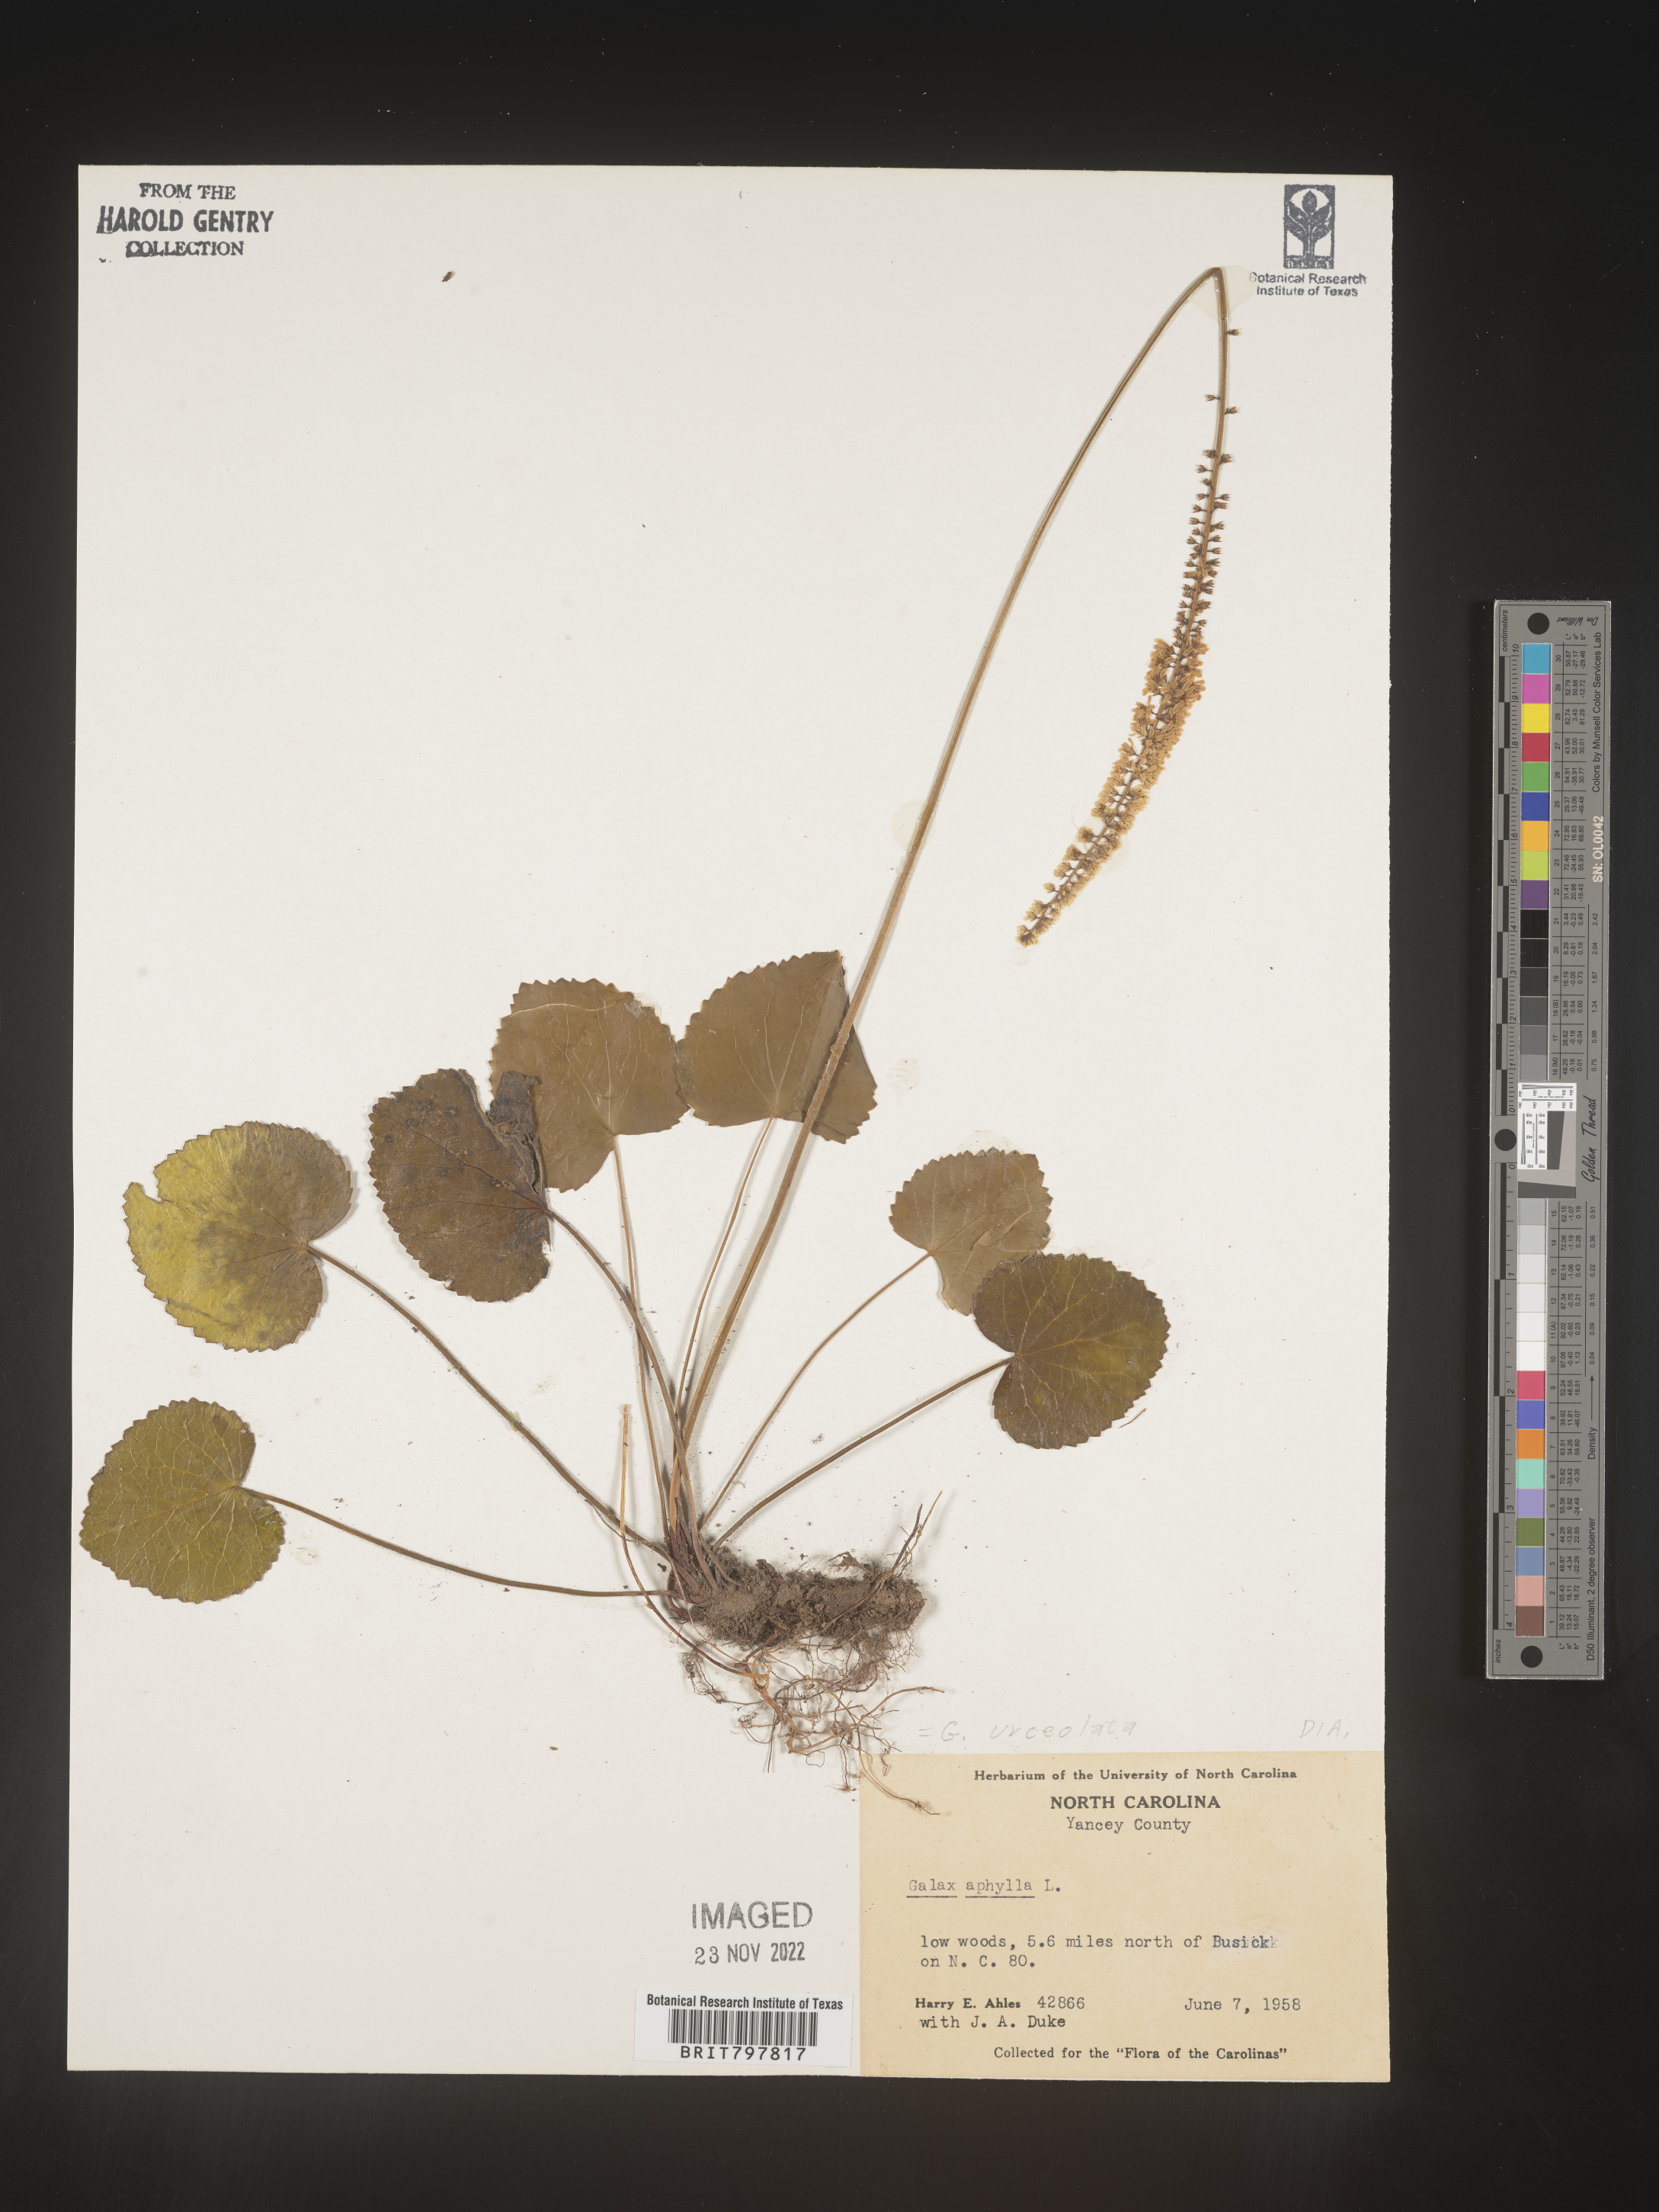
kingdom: Plantae
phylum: Tracheophyta
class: Magnoliopsida
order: Ericales
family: Diapensiaceae
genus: Galax
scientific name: Galax
